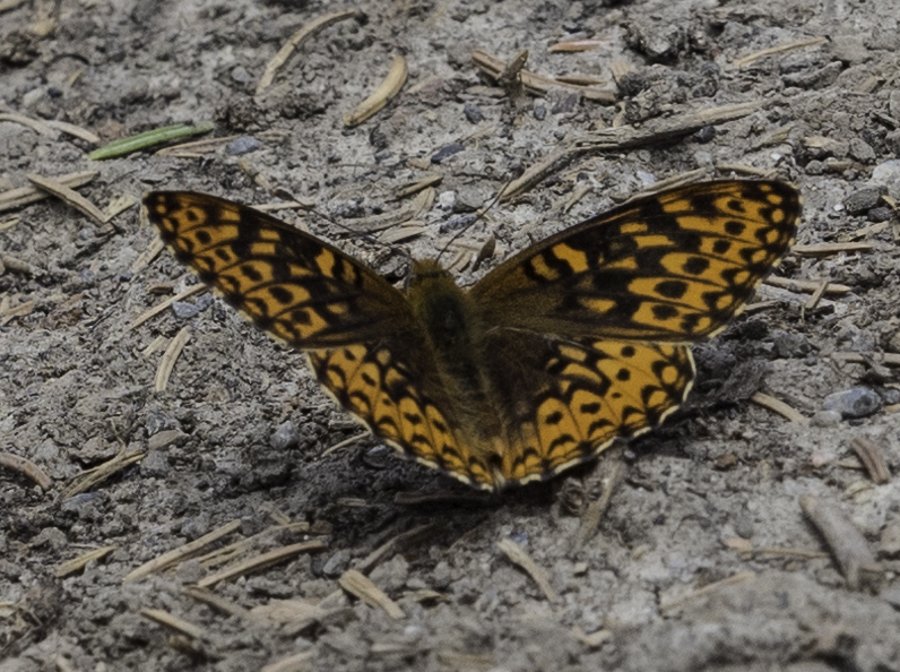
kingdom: Animalia
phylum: Arthropoda
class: Insecta
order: Lepidoptera
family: Nymphalidae
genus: Speyeria
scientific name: Speyeria hydaspe
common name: Hydaspe Fritillary
